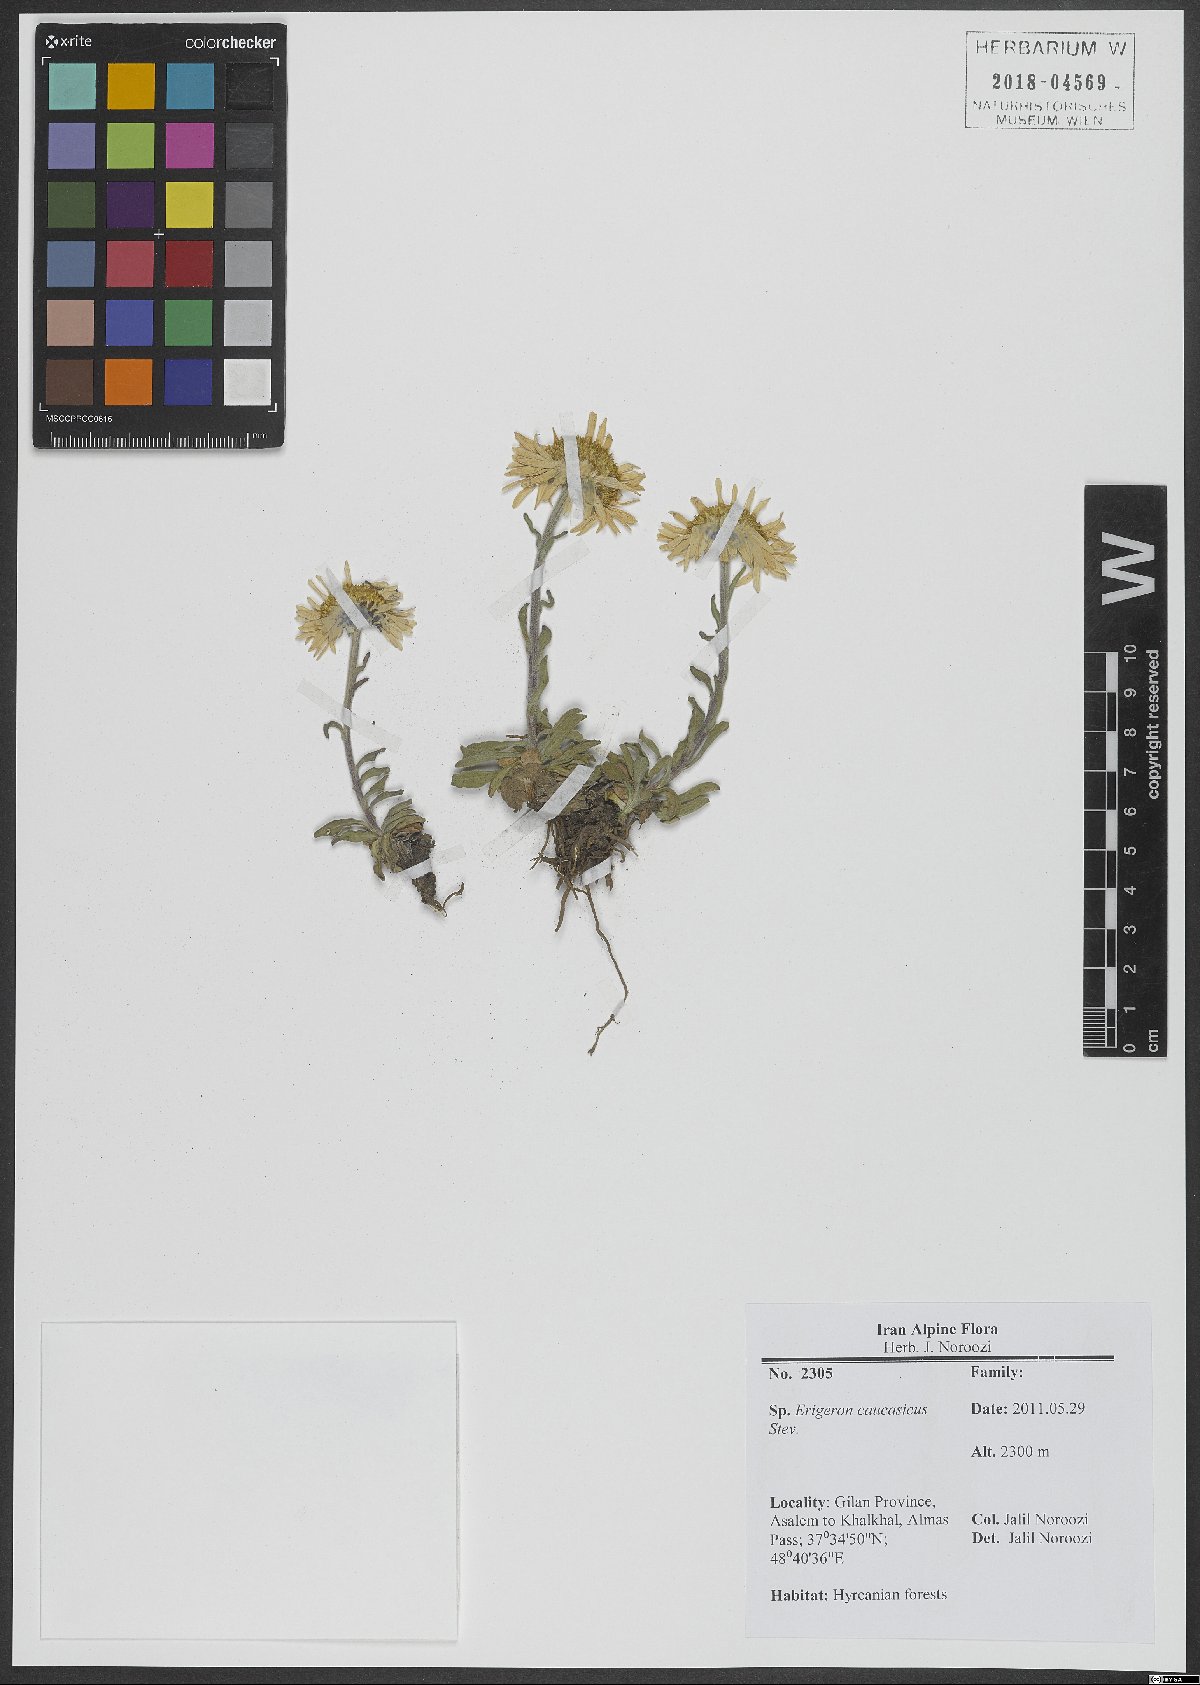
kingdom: Plantae
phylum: Tracheophyta
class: Magnoliopsida
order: Asterales
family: Asteraceae
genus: Erigeron
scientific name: Erigeron caucasicus
